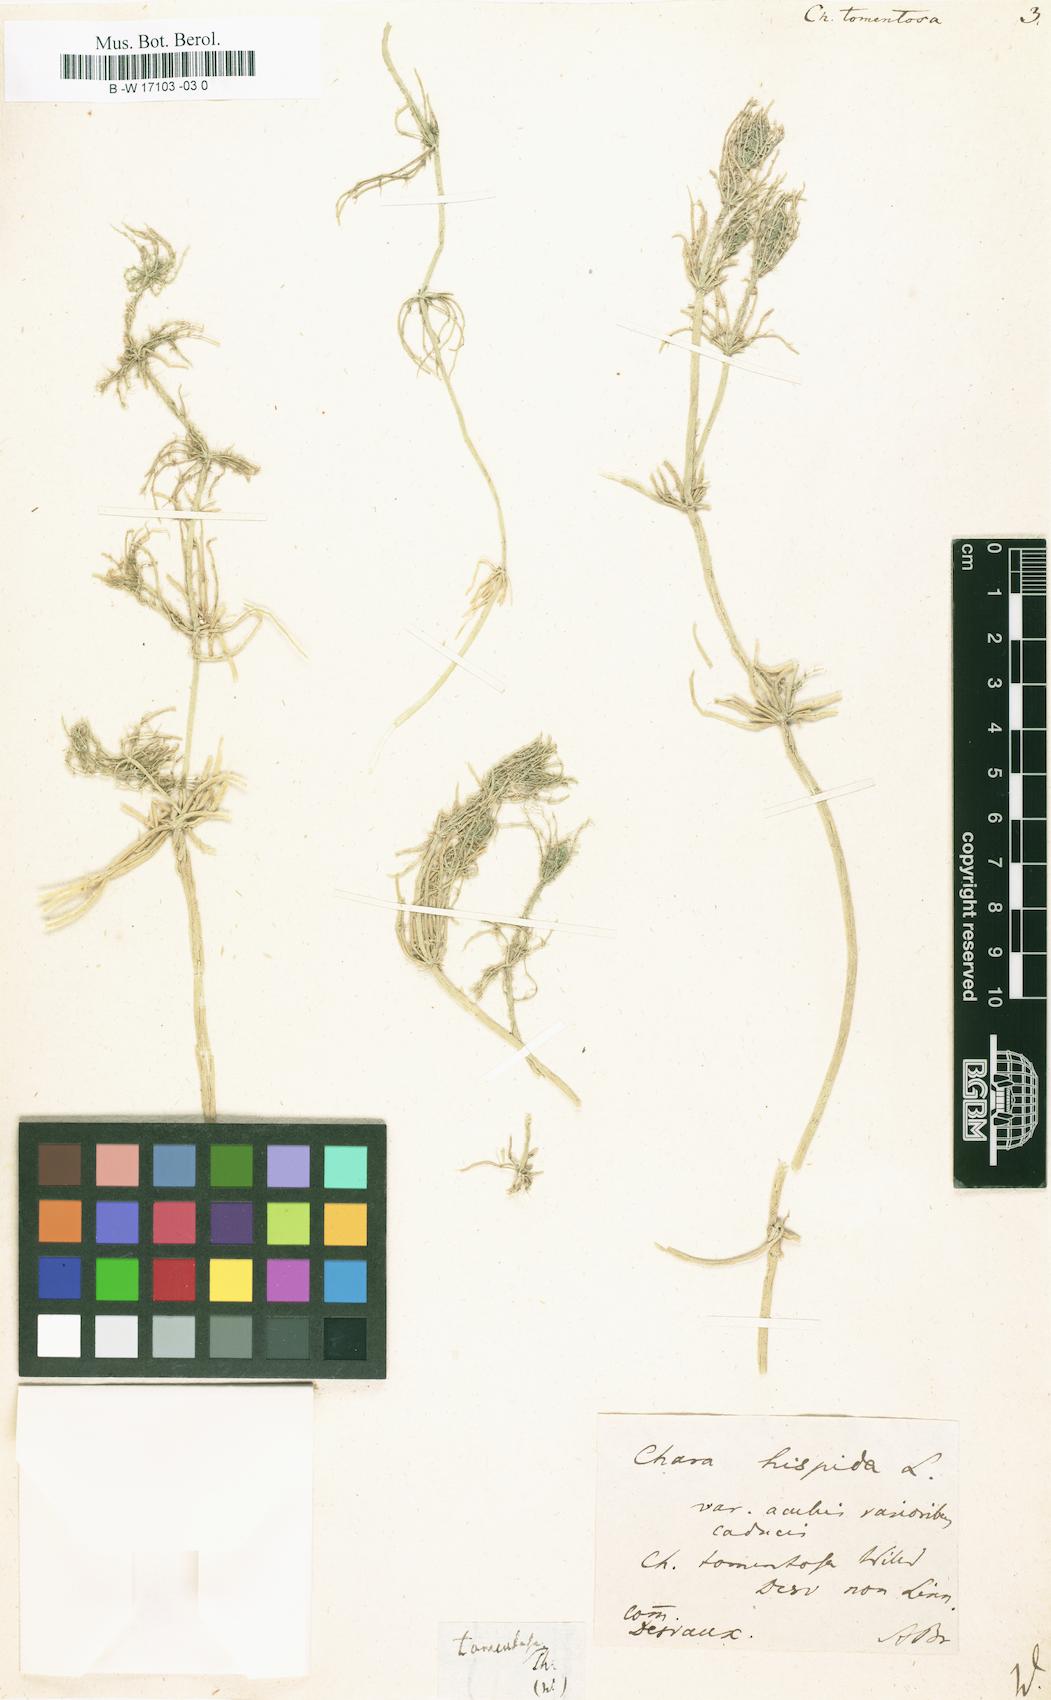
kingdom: Plantae
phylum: Charophyta
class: Charophyceae
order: Charales
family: Characeae
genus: Chara
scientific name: Chara tomentosa
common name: Coral stonewort
